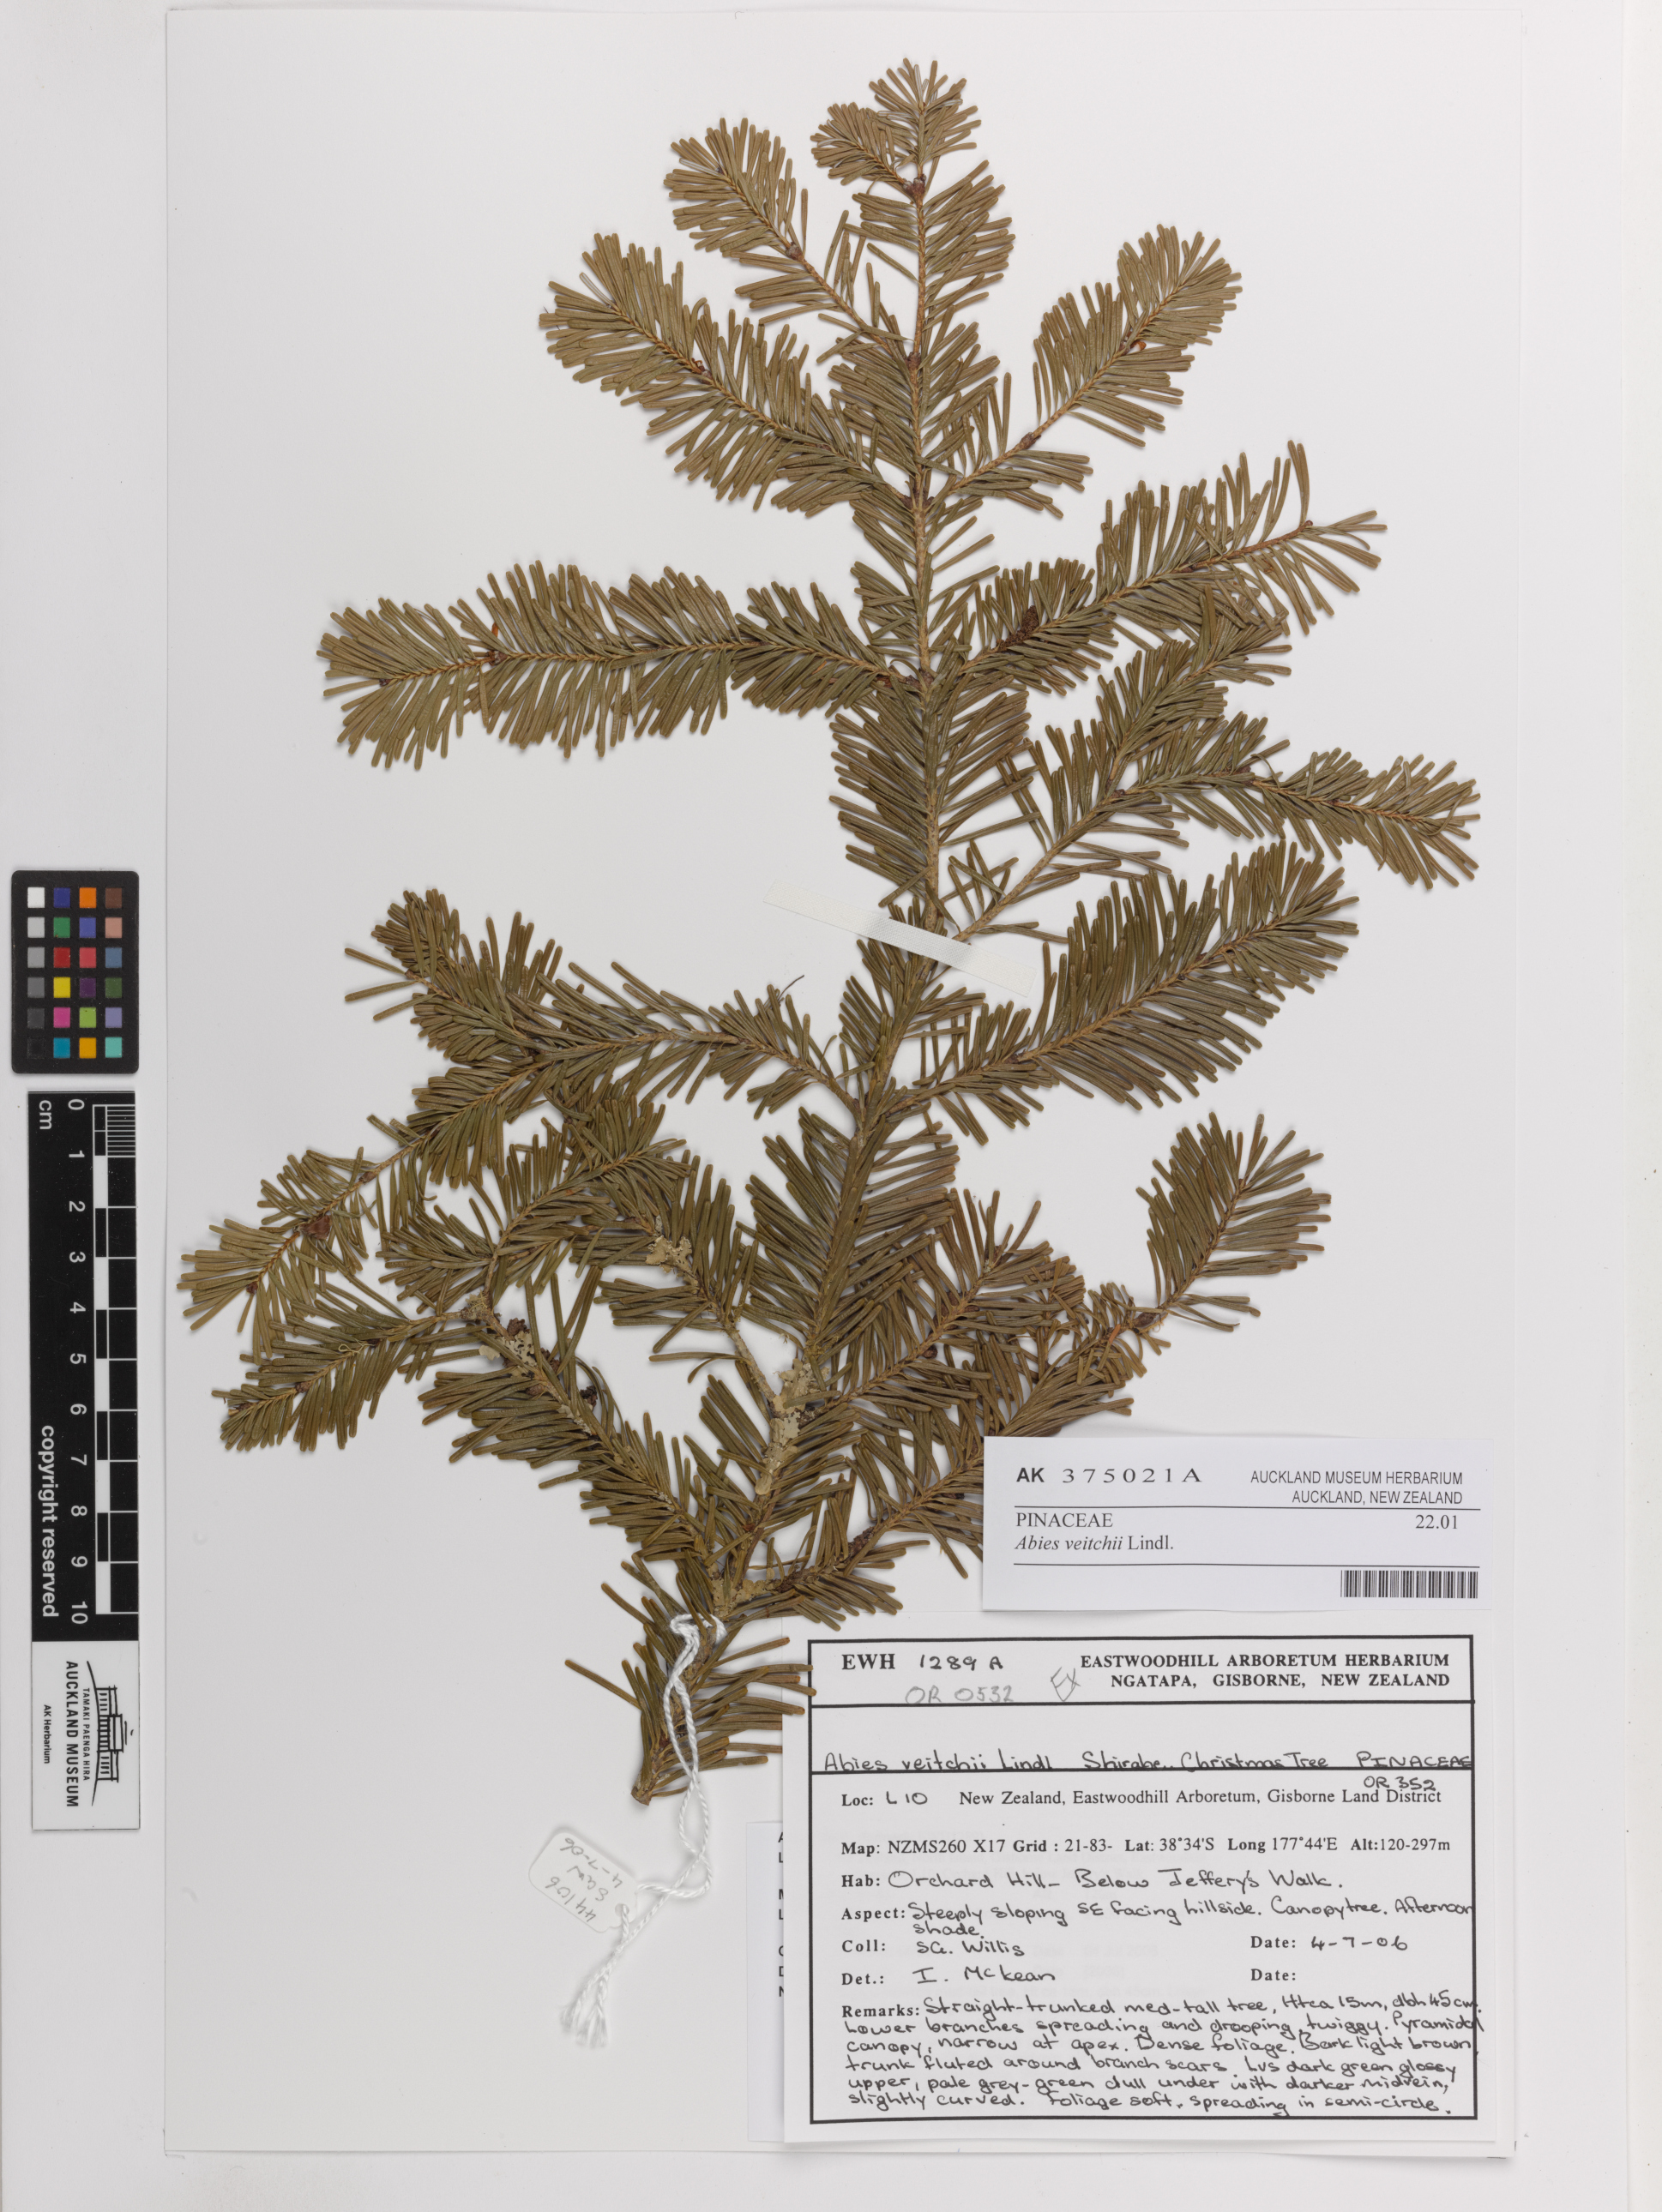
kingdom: Plantae
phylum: Tracheophyta
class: Pinopsida
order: Pinales
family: Pinaceae
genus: Abies
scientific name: Abies veitchii
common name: Veitch’s fir
